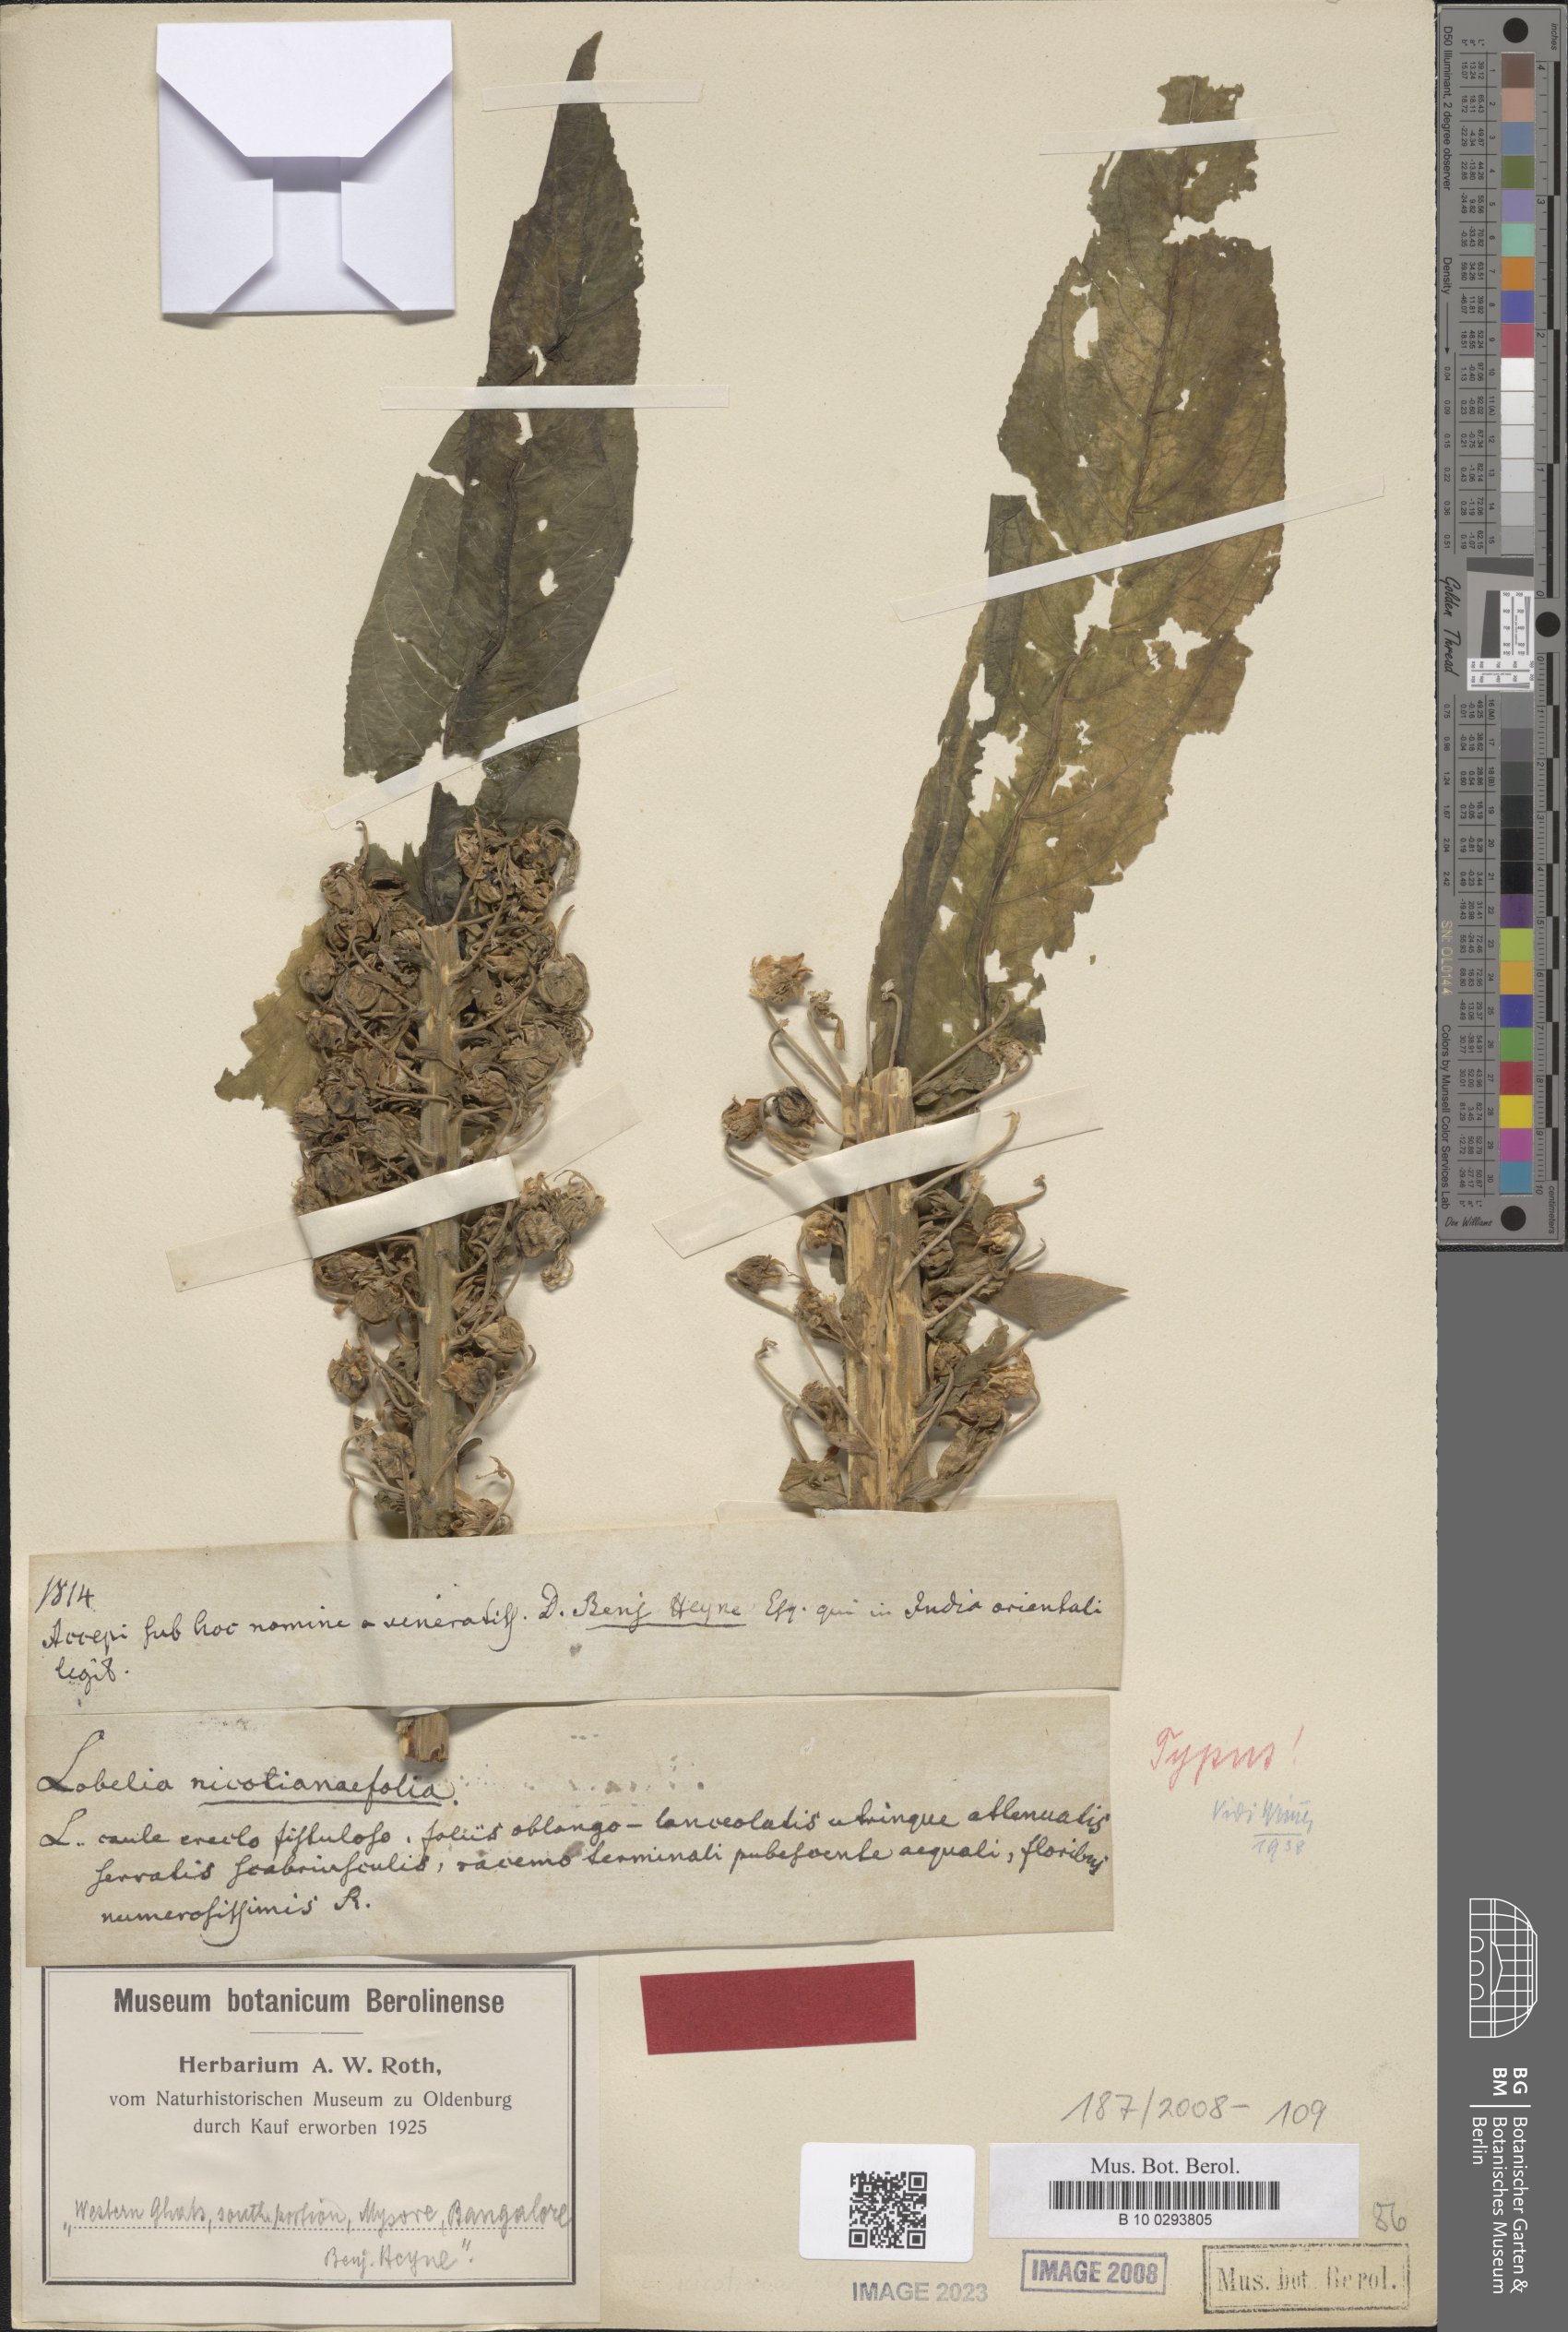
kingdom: Plantae
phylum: Tracheophyta
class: Magnoliopsida
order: Asterales
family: Campanulaceae
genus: Lobelia
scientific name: Lobelia nicotianifolia
